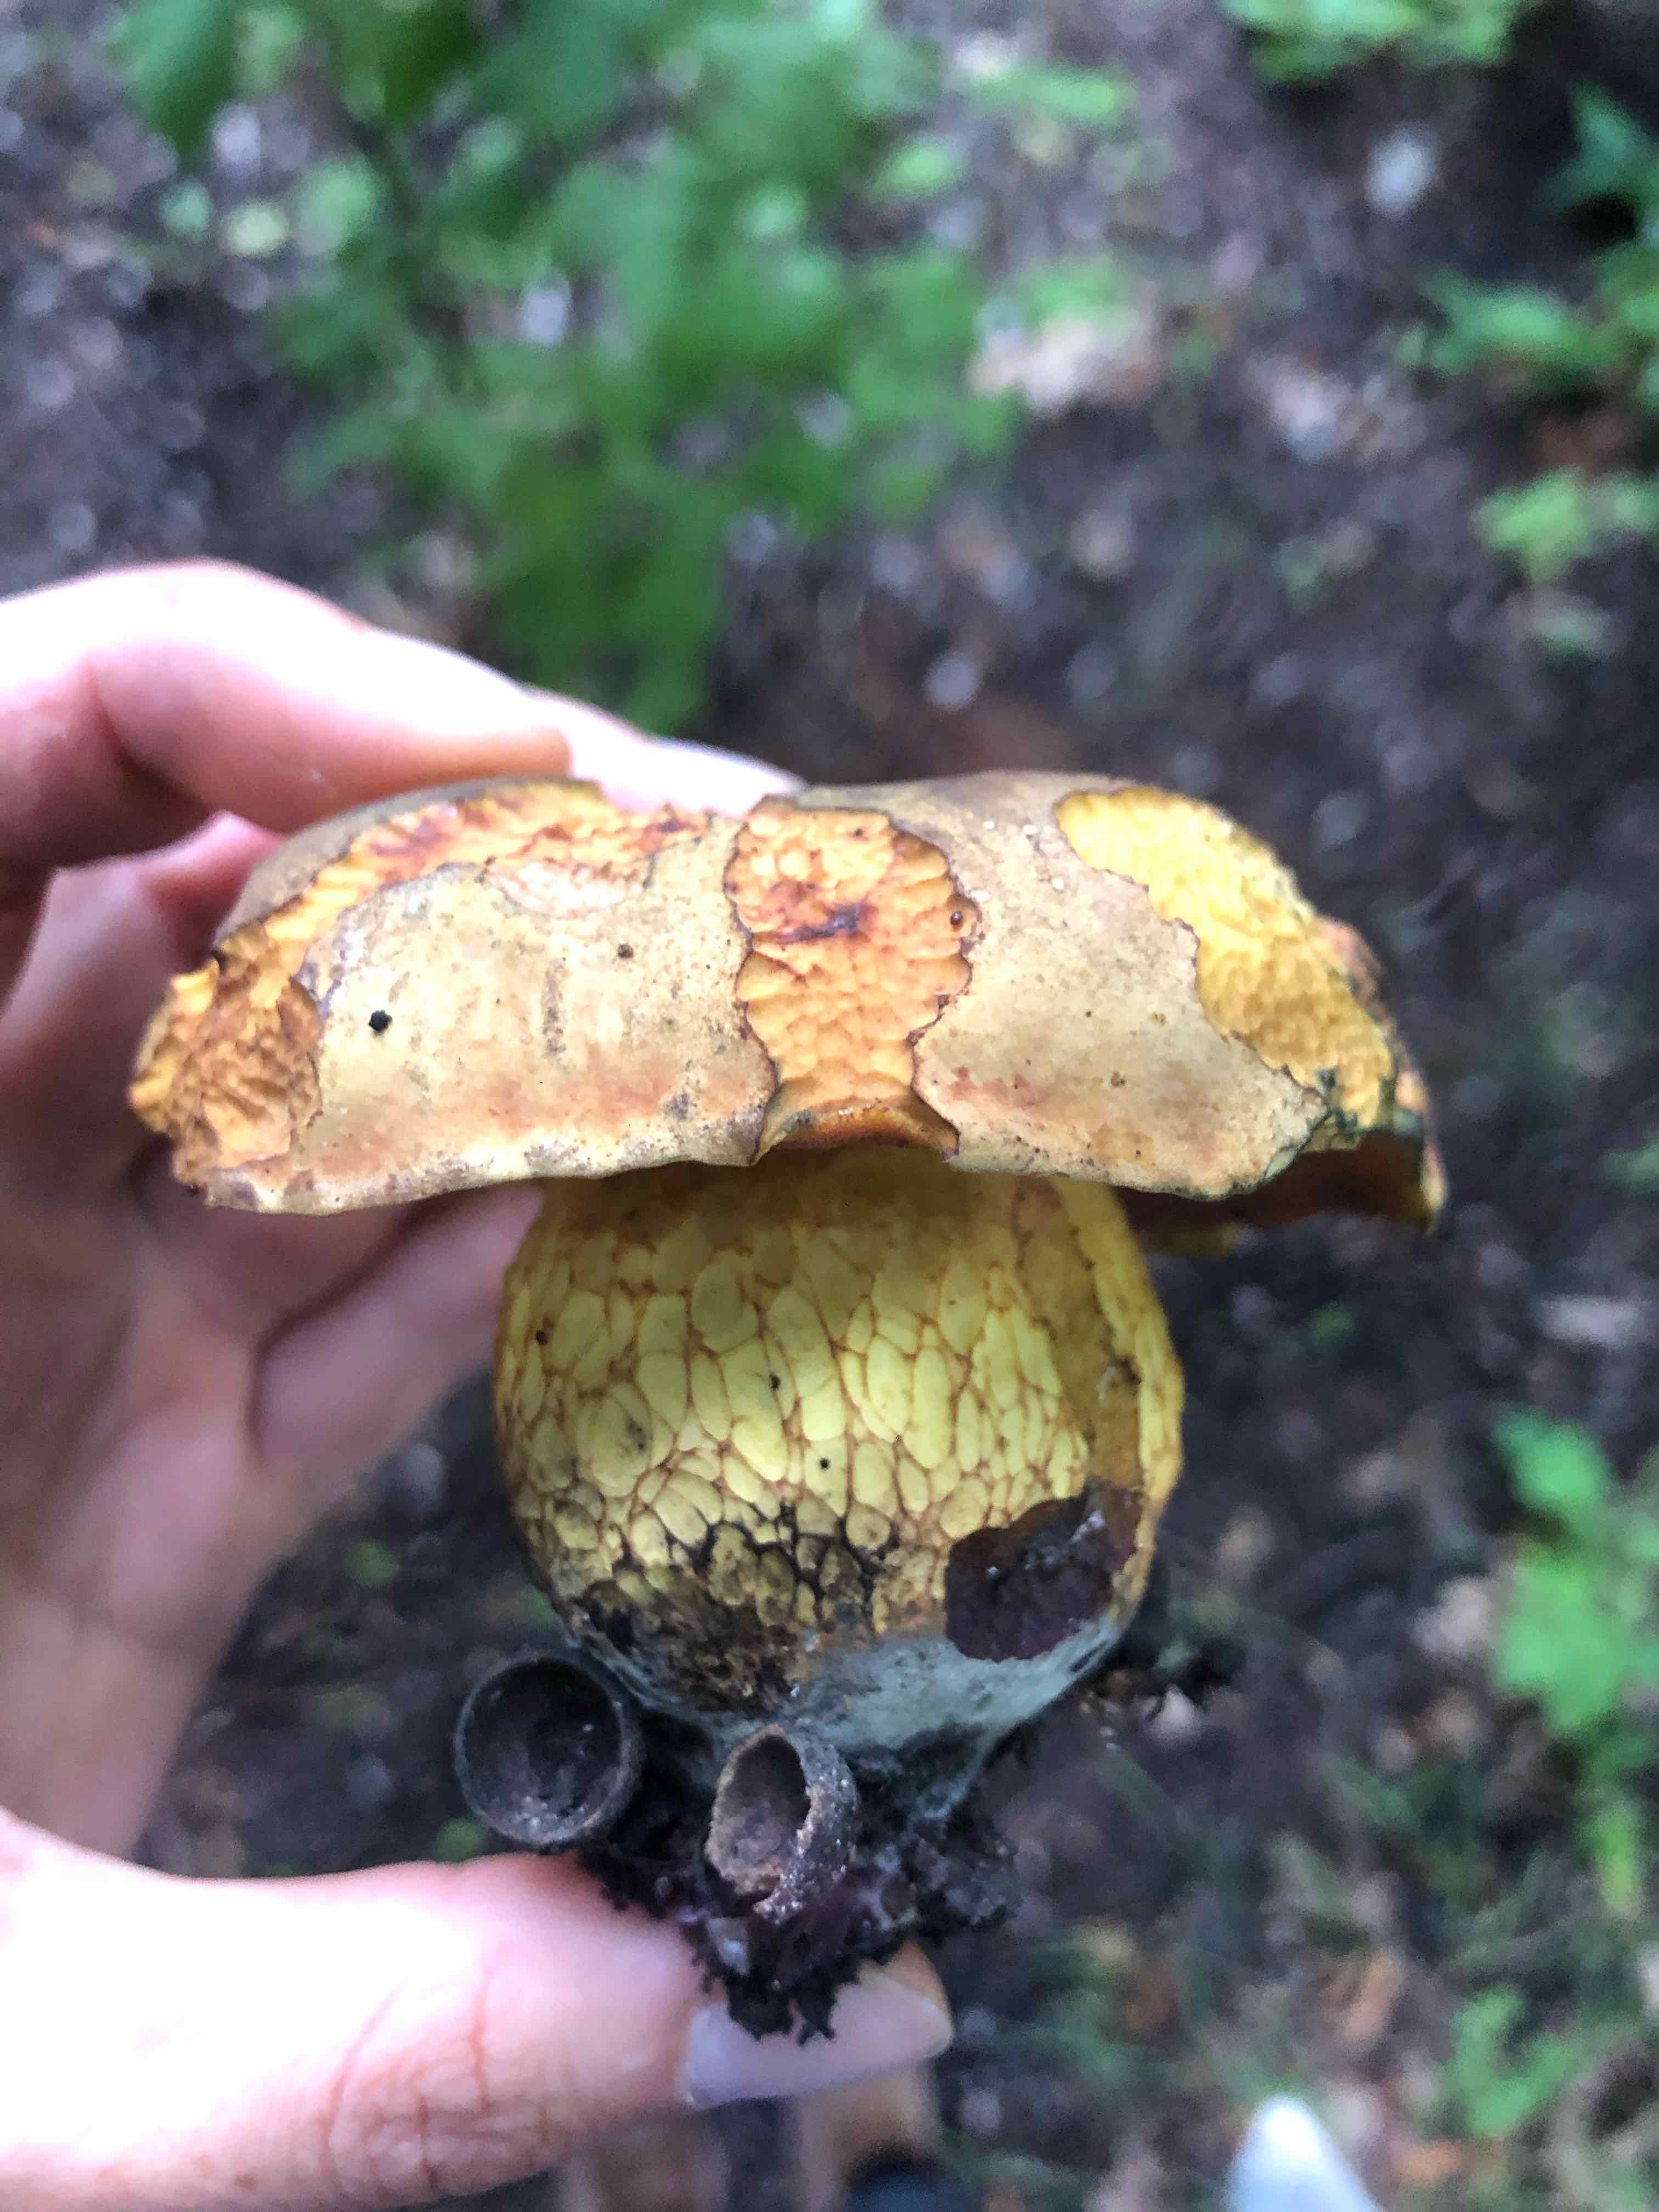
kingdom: Fungi
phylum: Basidiomycota
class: Agaricomycetes
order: Boletales
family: Boletaceae
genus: Suillellus
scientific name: Suillellus luridus
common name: netstokket indigorørhat
